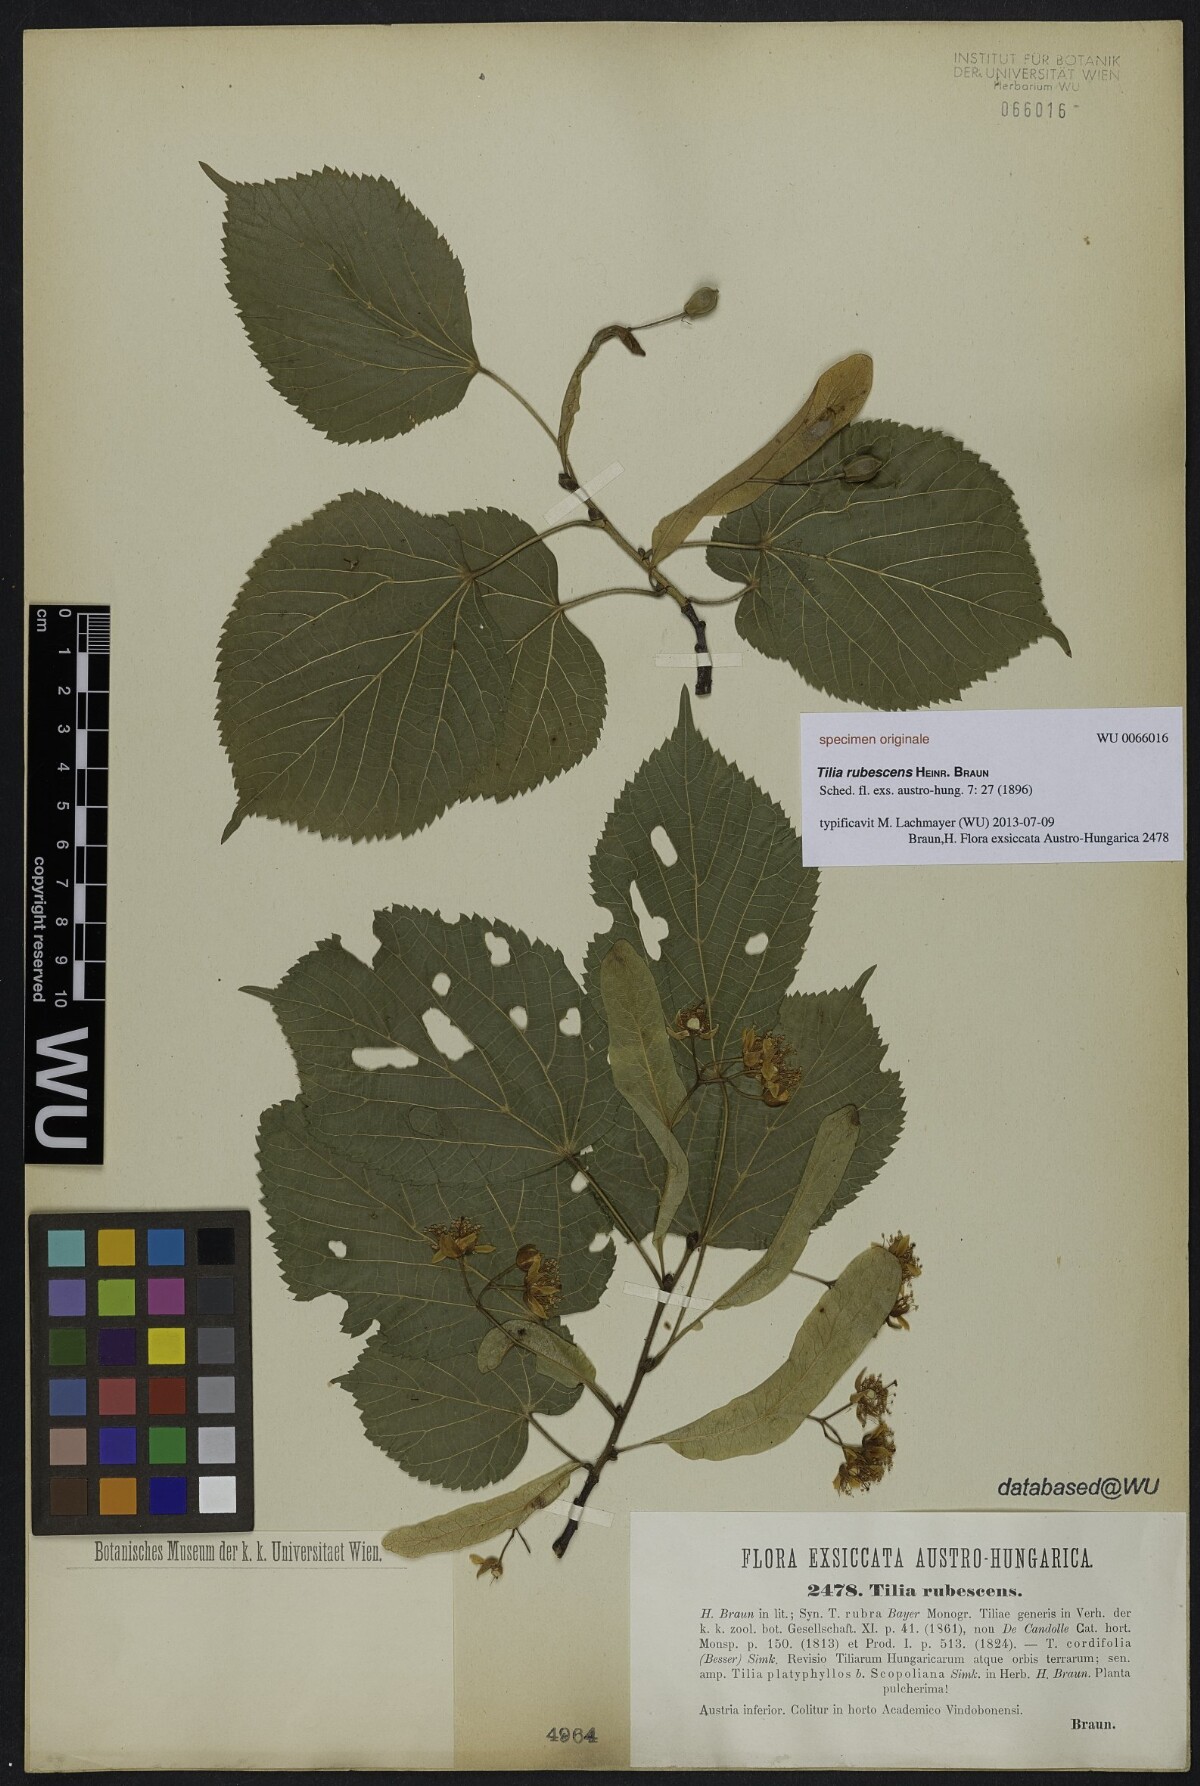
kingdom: Plantae
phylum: Tracheophyta
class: Magnoliopsida
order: Malvales
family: Malvaceae
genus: Tilia
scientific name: Tilia rubescens
